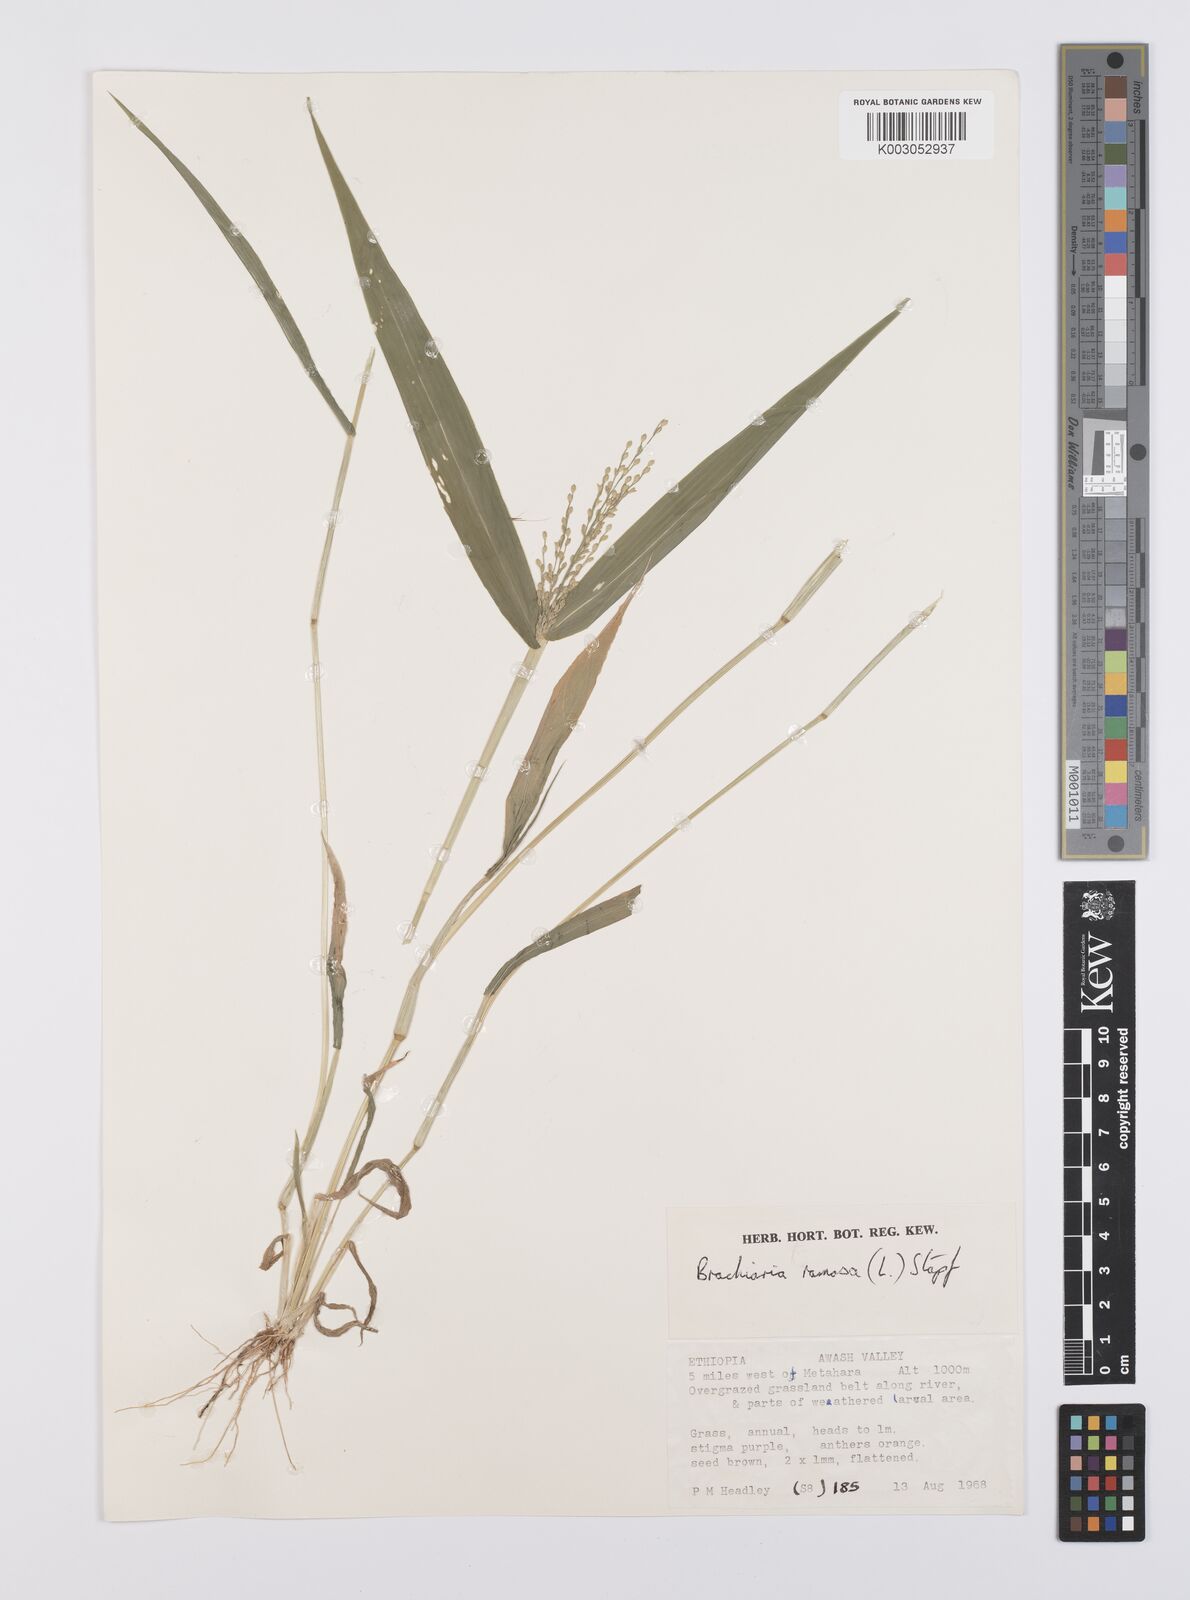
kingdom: Plantae
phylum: Tracheophyta
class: Liliopsida
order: Poales
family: Poaceae
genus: Urochloa
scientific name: Urochloa ramosa
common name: Browntop millet
